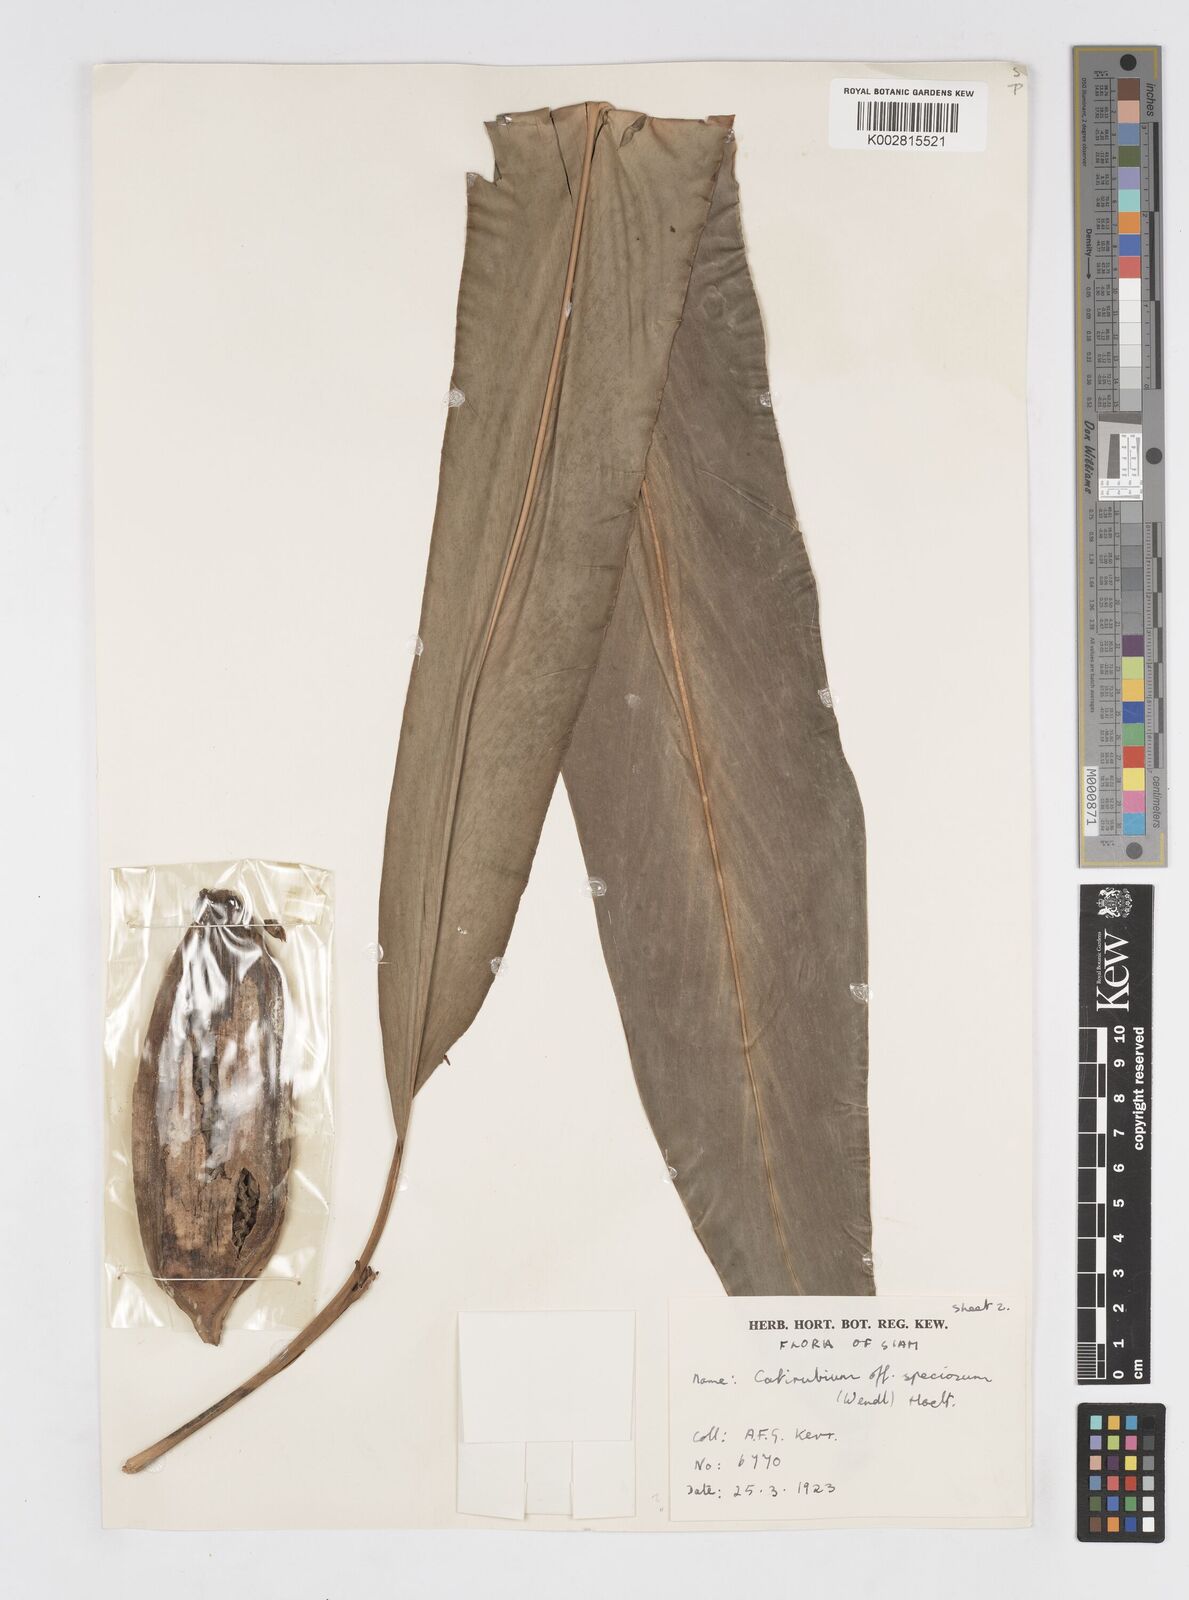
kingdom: Plantae
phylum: Tracheophyta
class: Liliopsida
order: Zingiberales
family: Zingiberaceae
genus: Alpinia
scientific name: Alpinia zerumbet
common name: Shellplant
